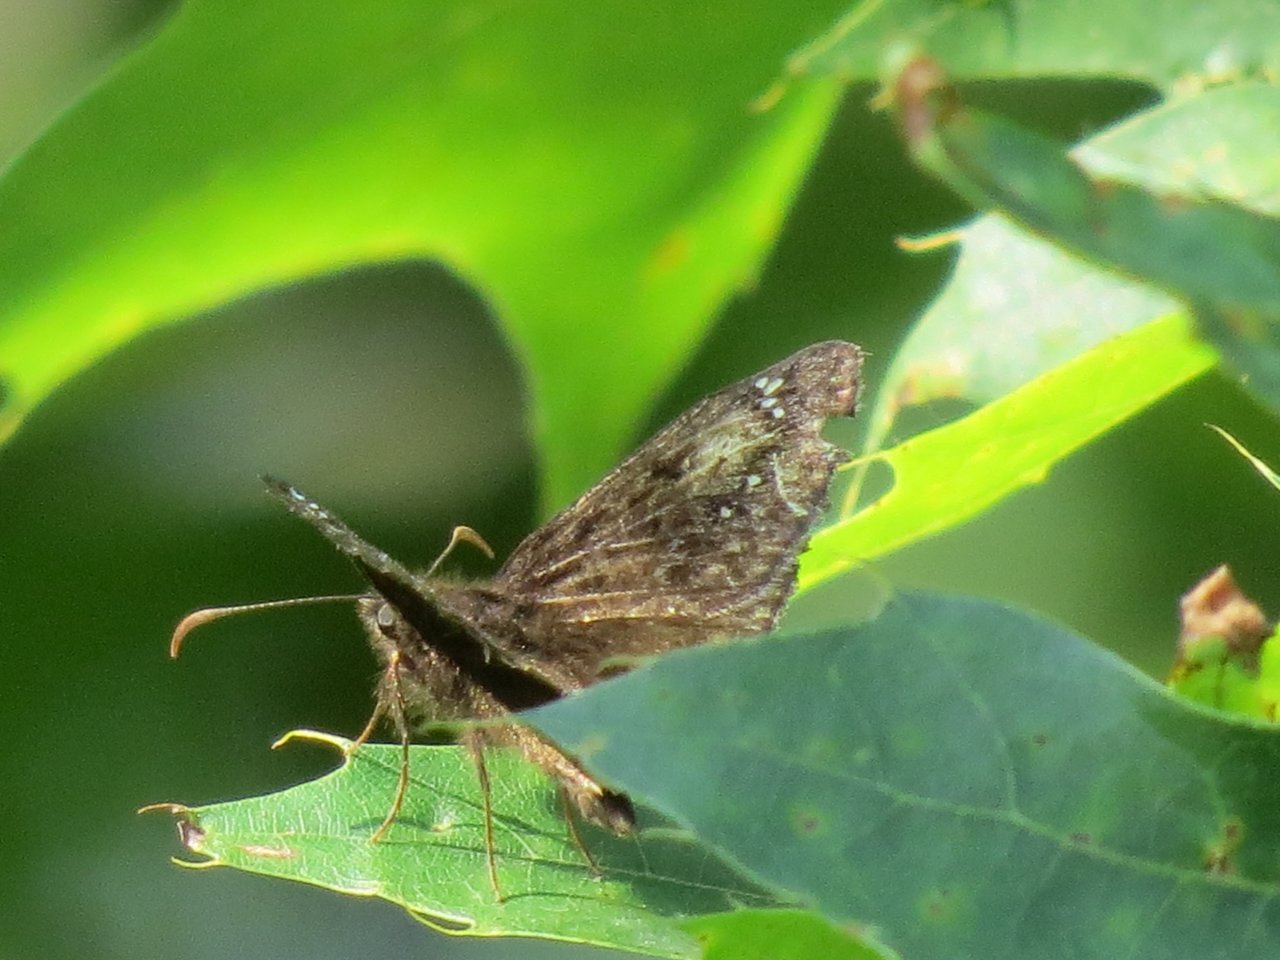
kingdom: Animalia
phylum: Arthropoda
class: Insecta
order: Lepidoptera
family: Hesperiidae
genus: Gesta
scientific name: Gesta
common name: Juvenal's Duskywing
